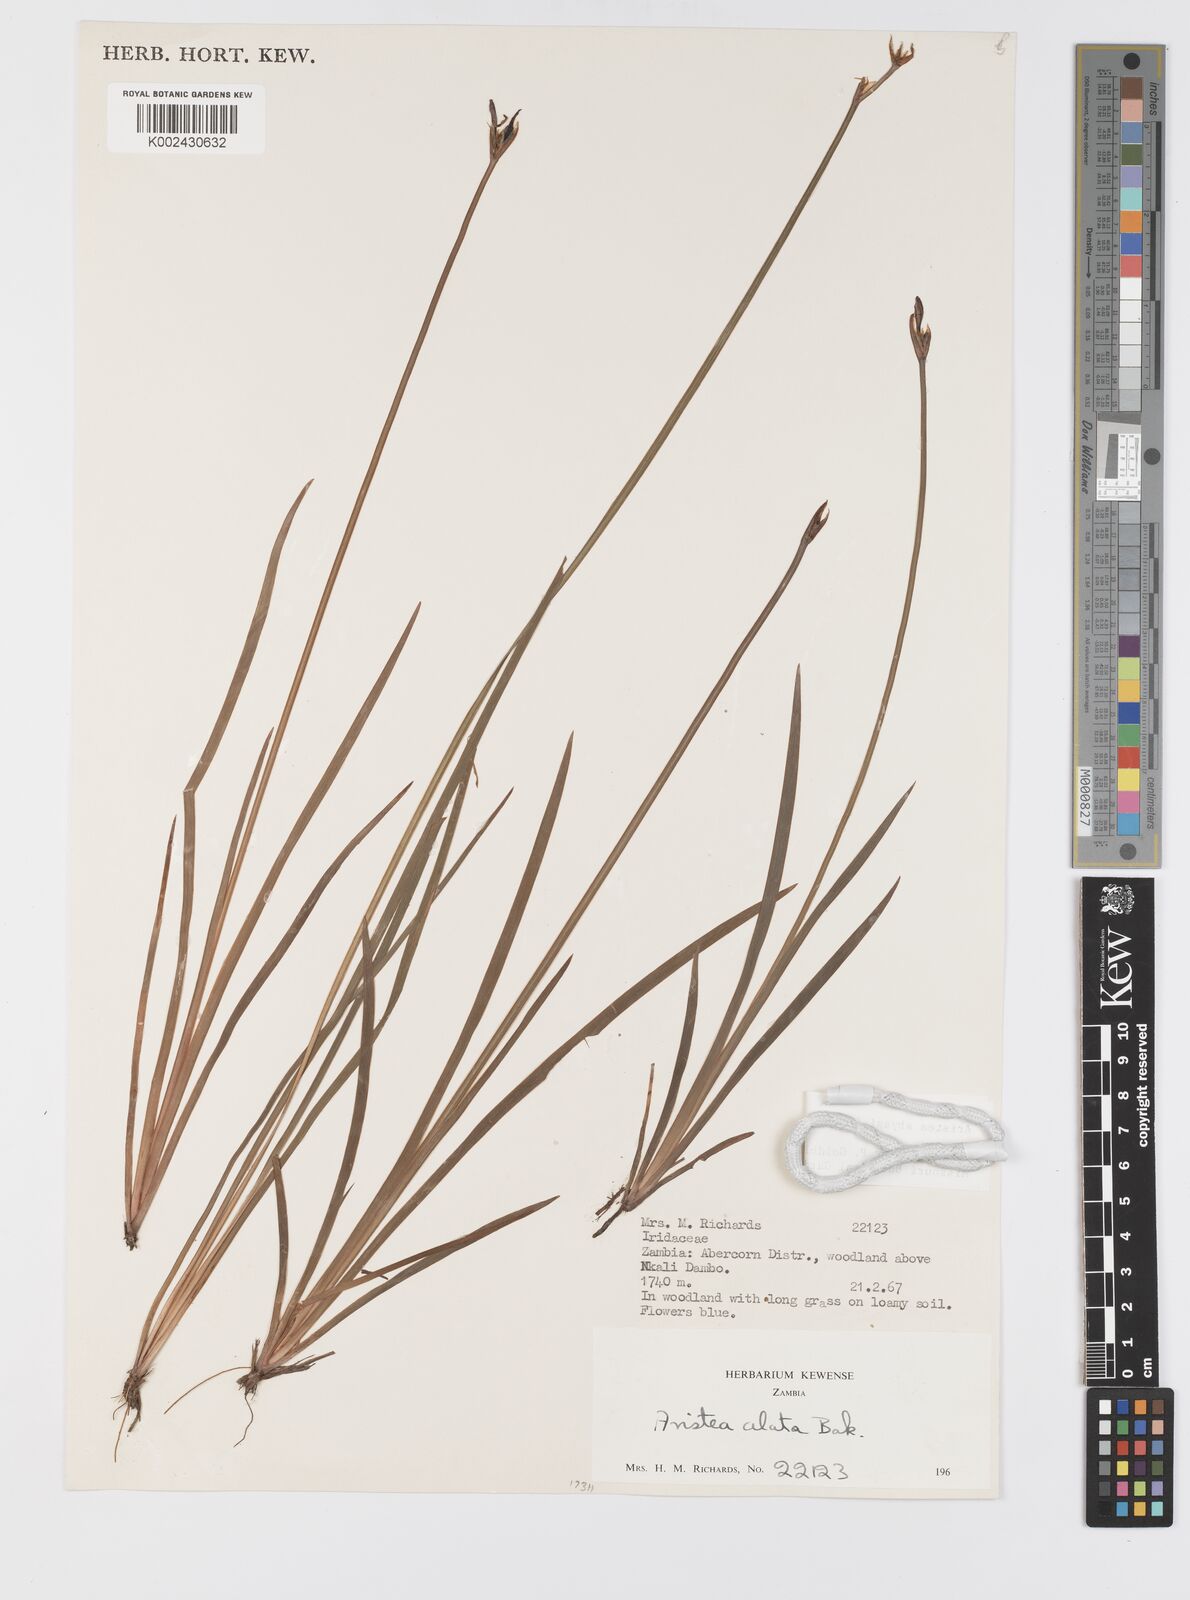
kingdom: Plantae
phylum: Tracheophyta
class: Liliopsida
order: Asparagales
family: Iridaceae
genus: Aristea
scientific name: Aristea abyssinica
